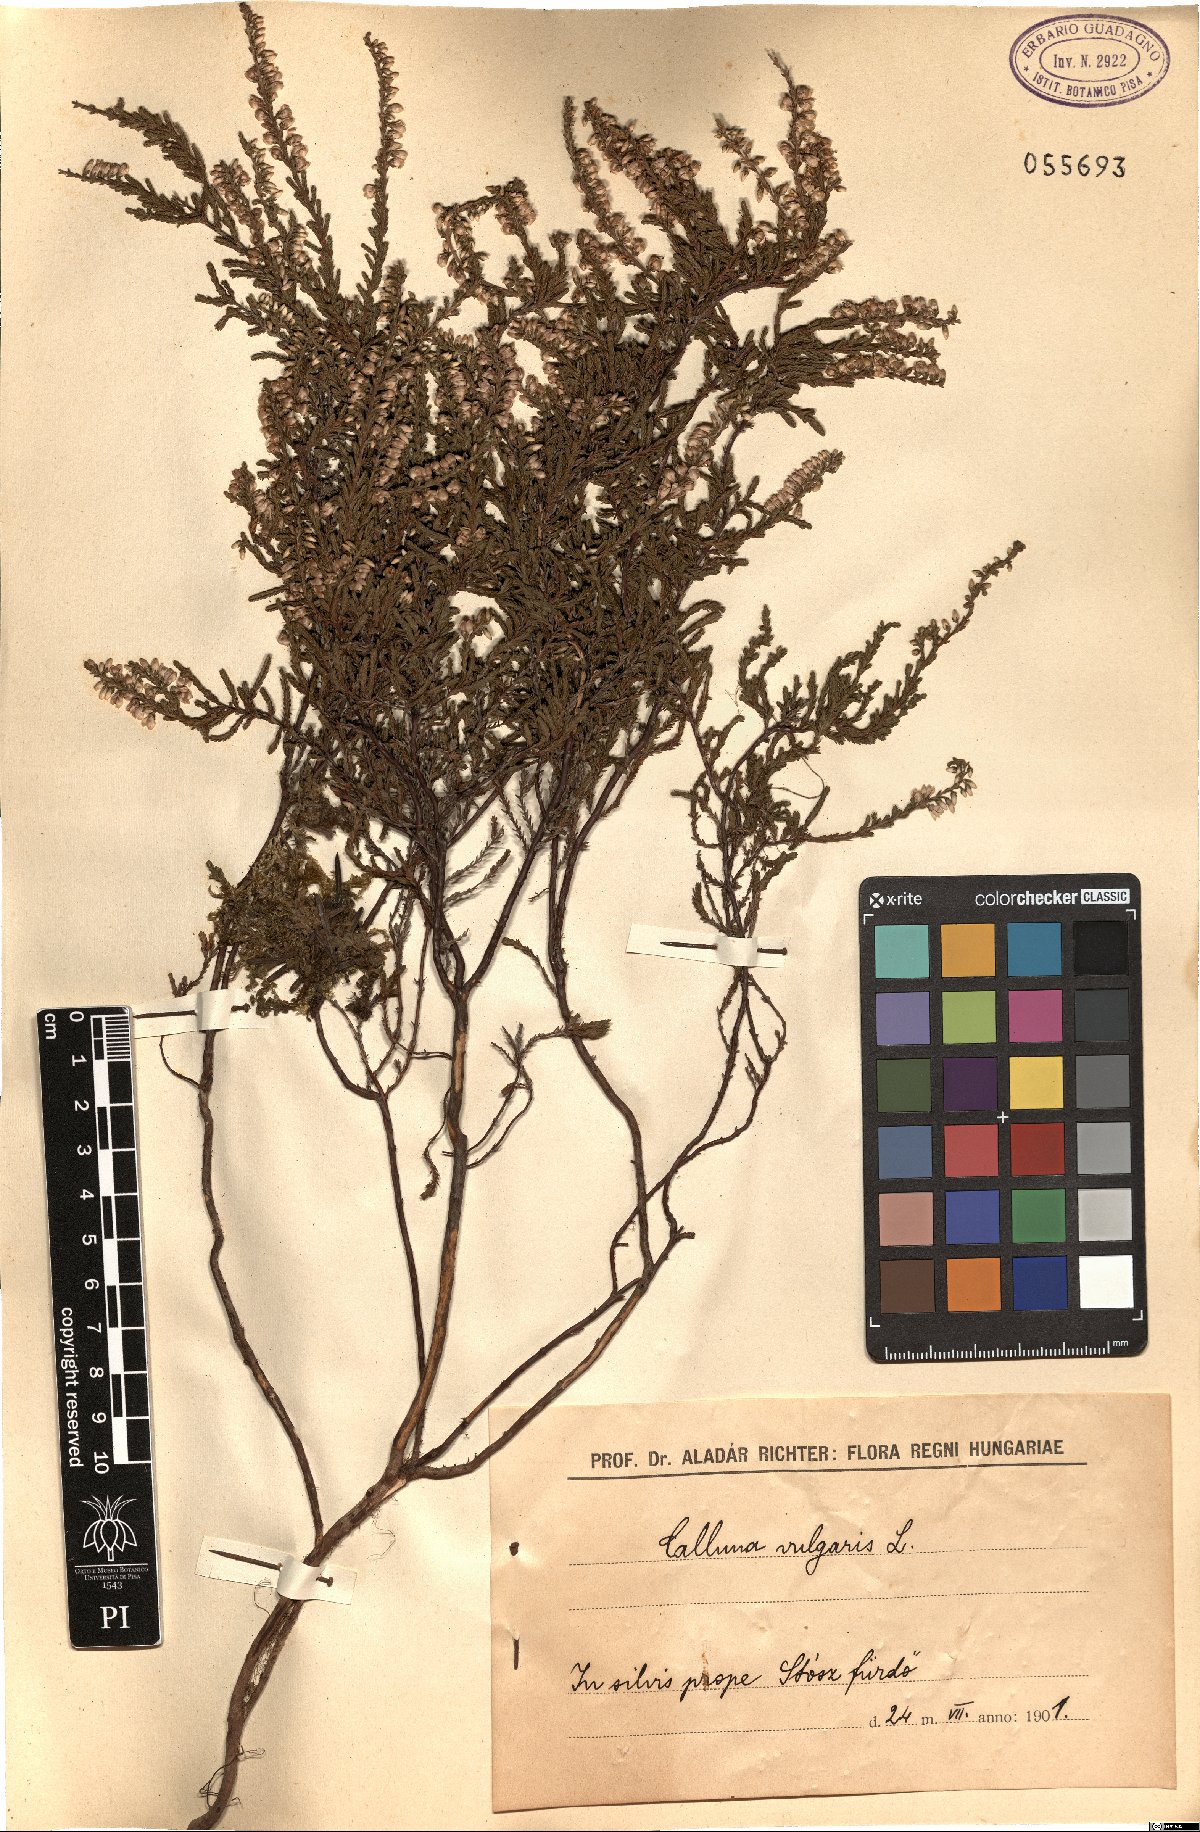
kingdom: Plantae
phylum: Tracheophyta
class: Magnoliopsida
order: Ericales
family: Ericaceae
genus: Calluna
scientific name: Calluna vulgaris
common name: Heather
